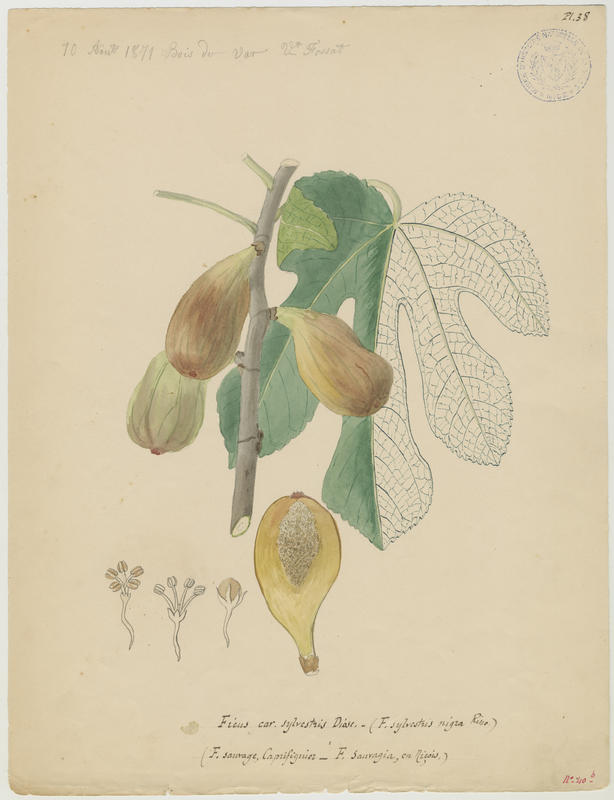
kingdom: Plantae
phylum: Tracheophyta
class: Magnoliopsida
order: Rosales
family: Moraceae
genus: Ficus
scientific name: Ficus carica
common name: Fig
